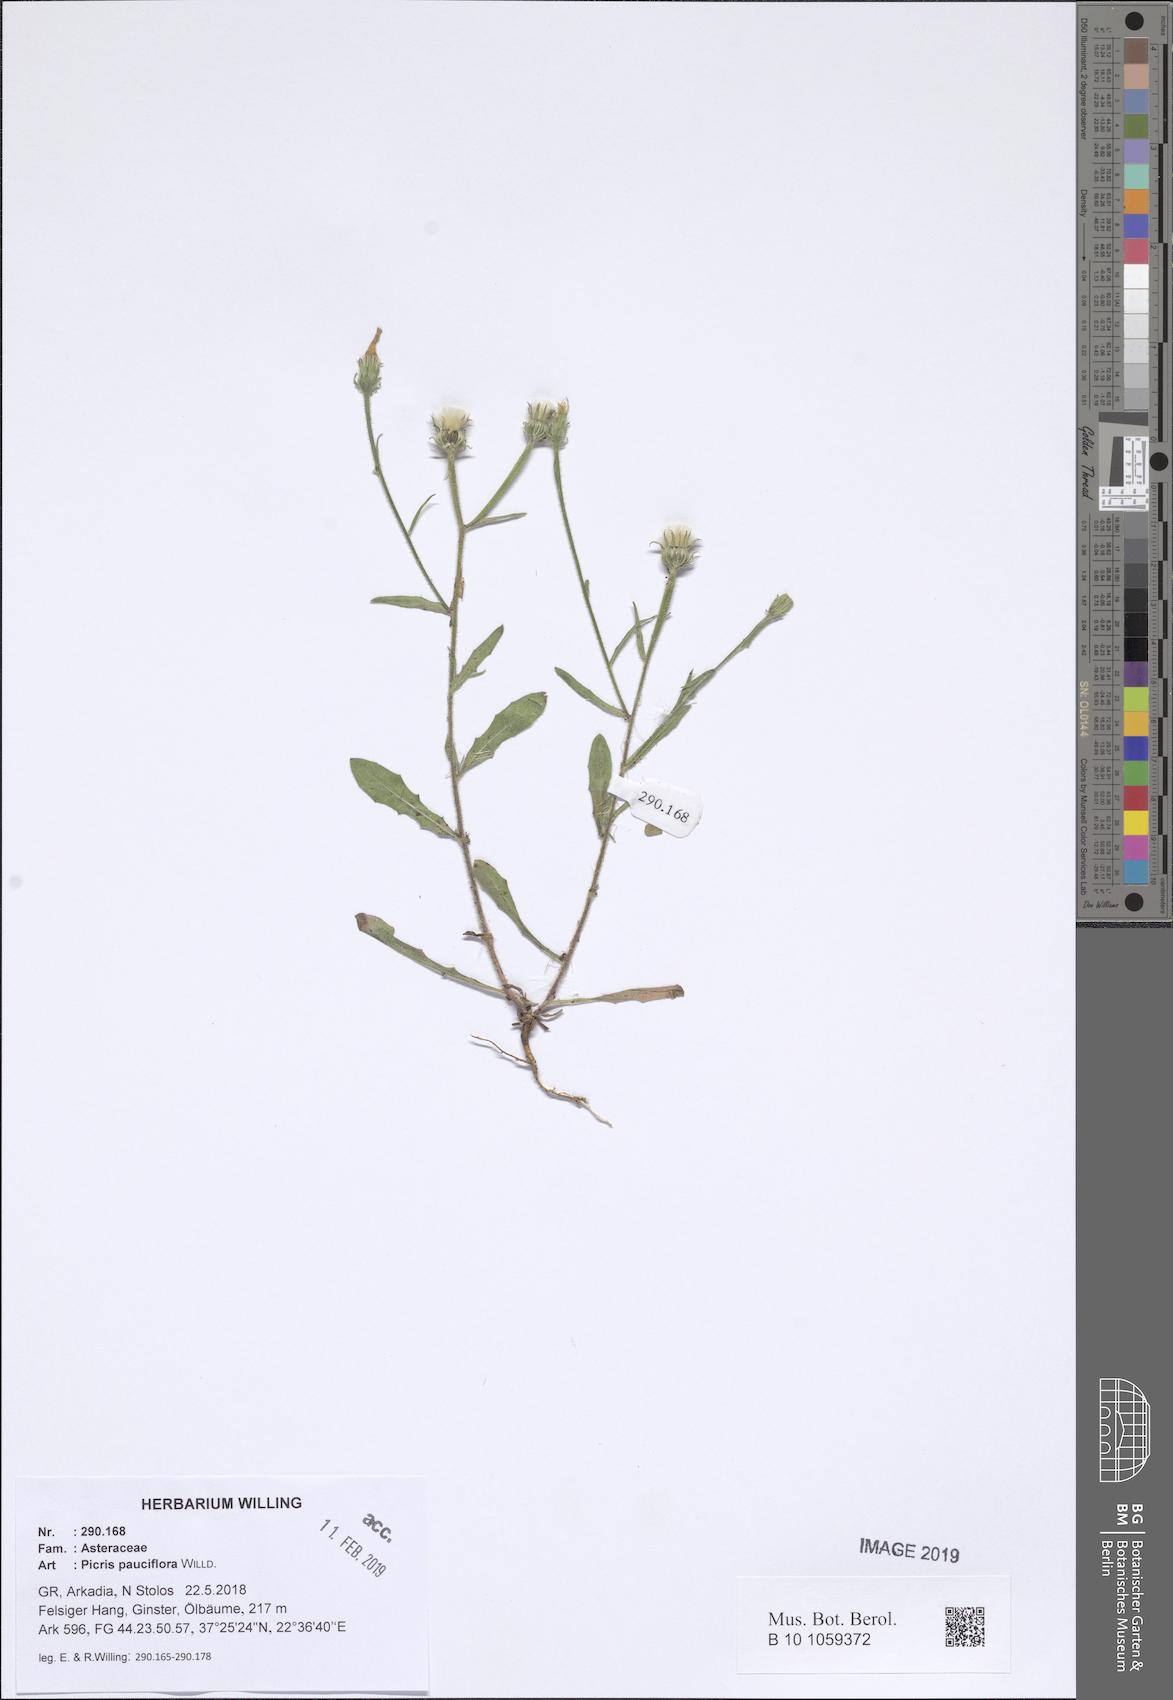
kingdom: Plantae
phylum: Tracheophyta
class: Magnoliopsida
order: Asterales
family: Asteraceae
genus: Picris
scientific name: Picris pauciflora
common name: Smallflower oxtongue
